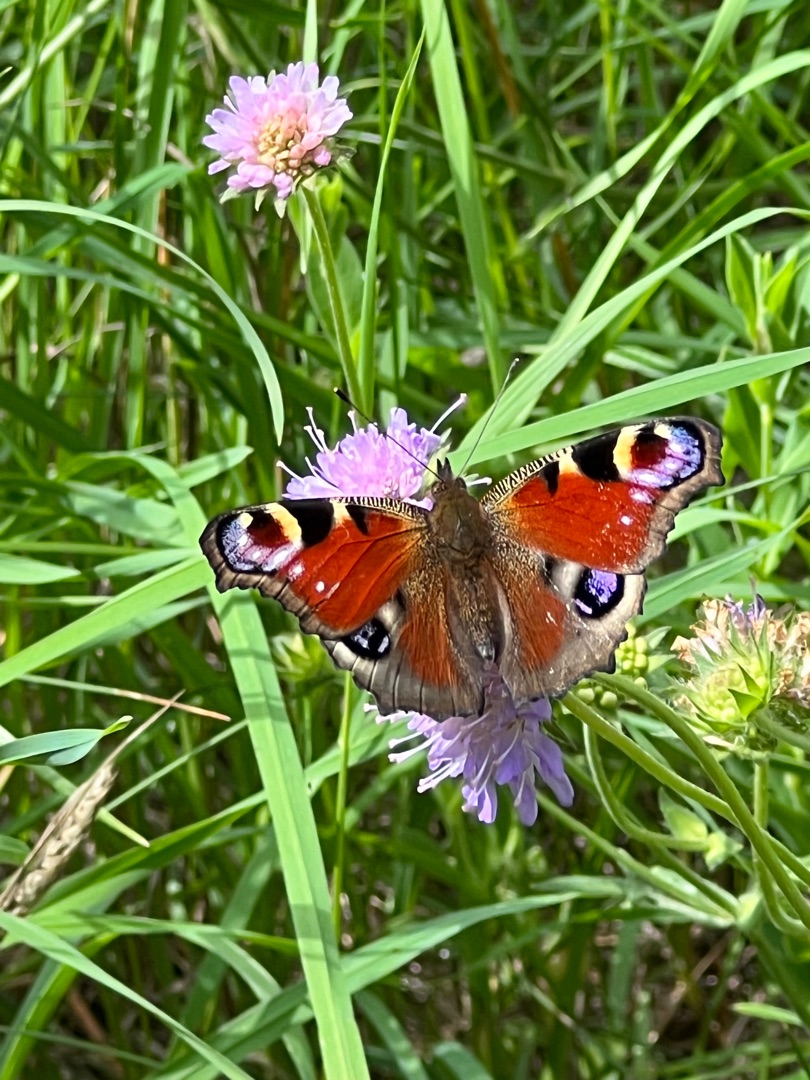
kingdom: Animalia
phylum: Arthropoda
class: Insecta
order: Lepidoptera
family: Nymphalidae
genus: Aglais
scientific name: Aglais io
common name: Dagpåfugleøje
